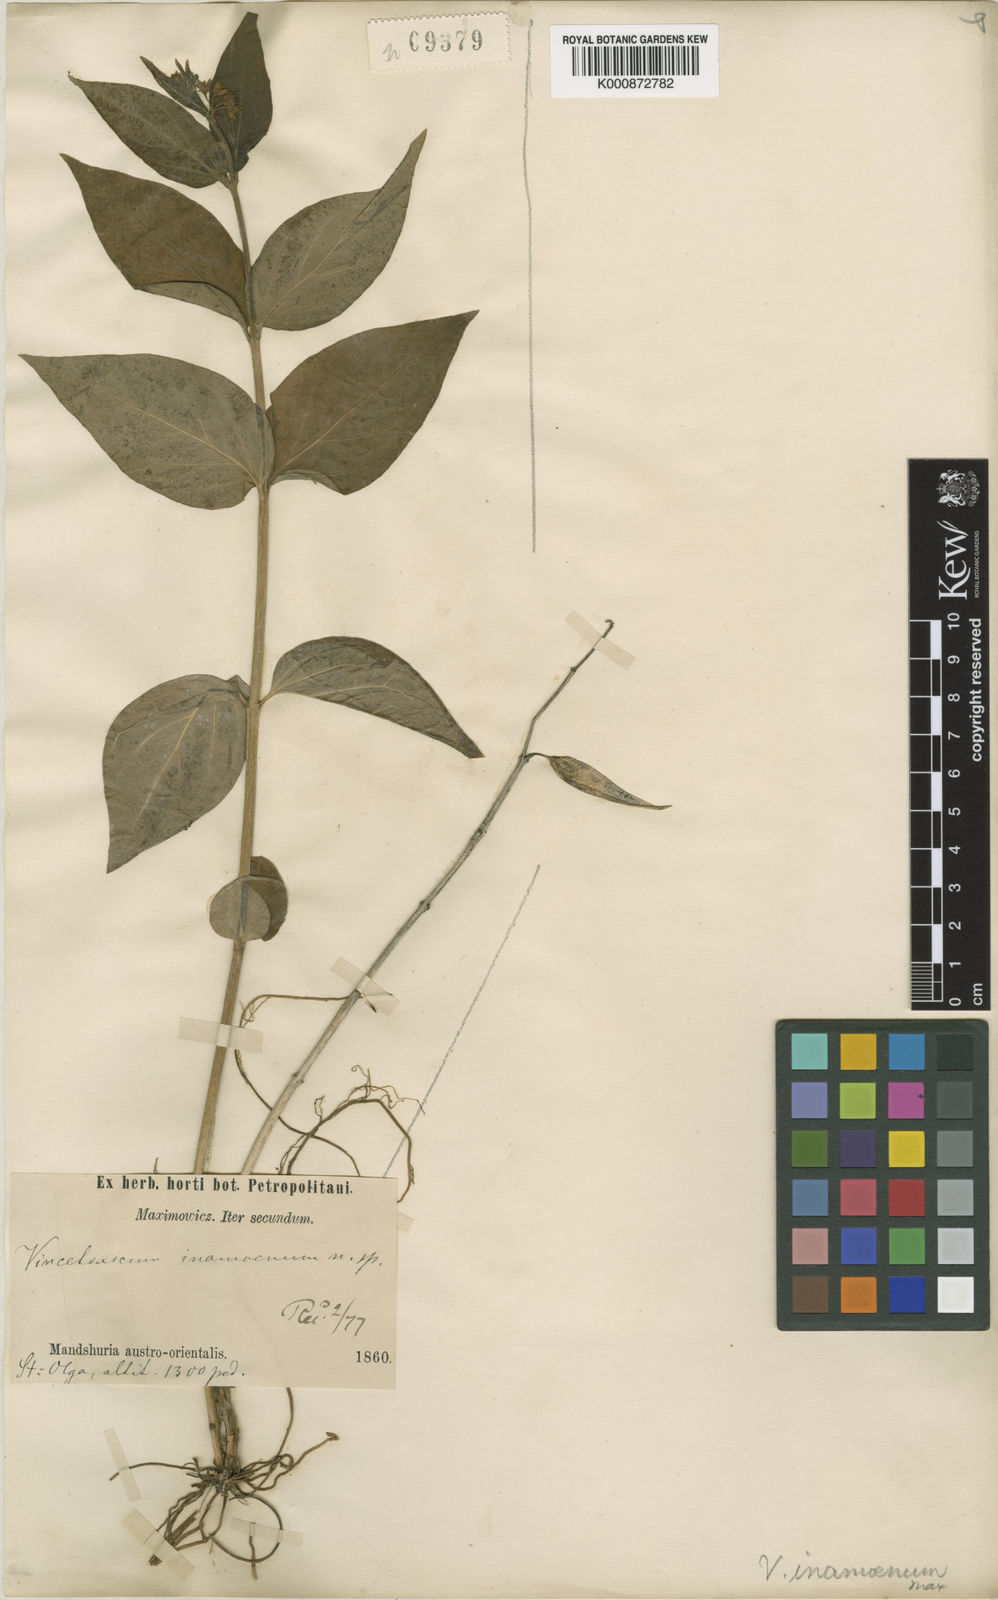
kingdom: Plantae
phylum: Tracheophyta
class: Magnoliopsida
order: Gentianales
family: Apocynaceae
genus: Vincetoxicum
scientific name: Vincetoxicum inamoenum
